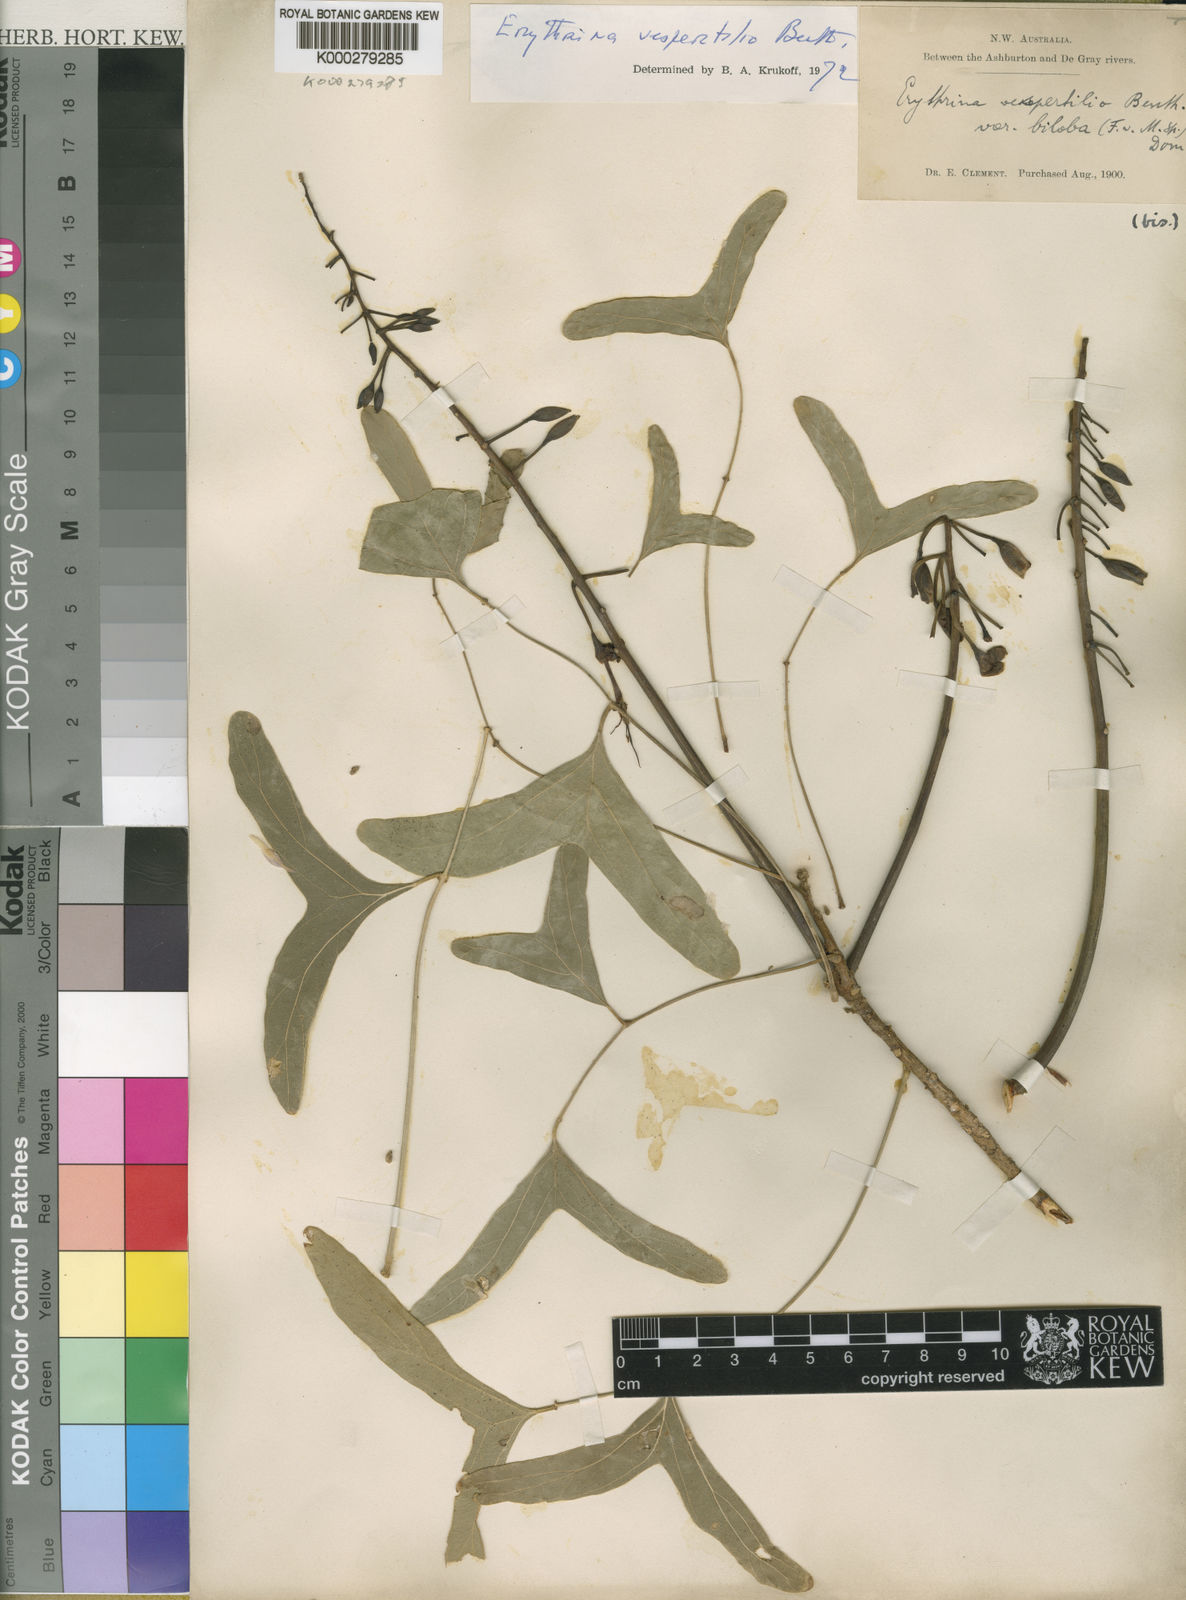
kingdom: Plantae
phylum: Tracheophyta
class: Magnoliopsida
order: Fabales
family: Fabaceae
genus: Erythrina
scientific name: Erythrina vespertilio
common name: Bat-wing coral tree
